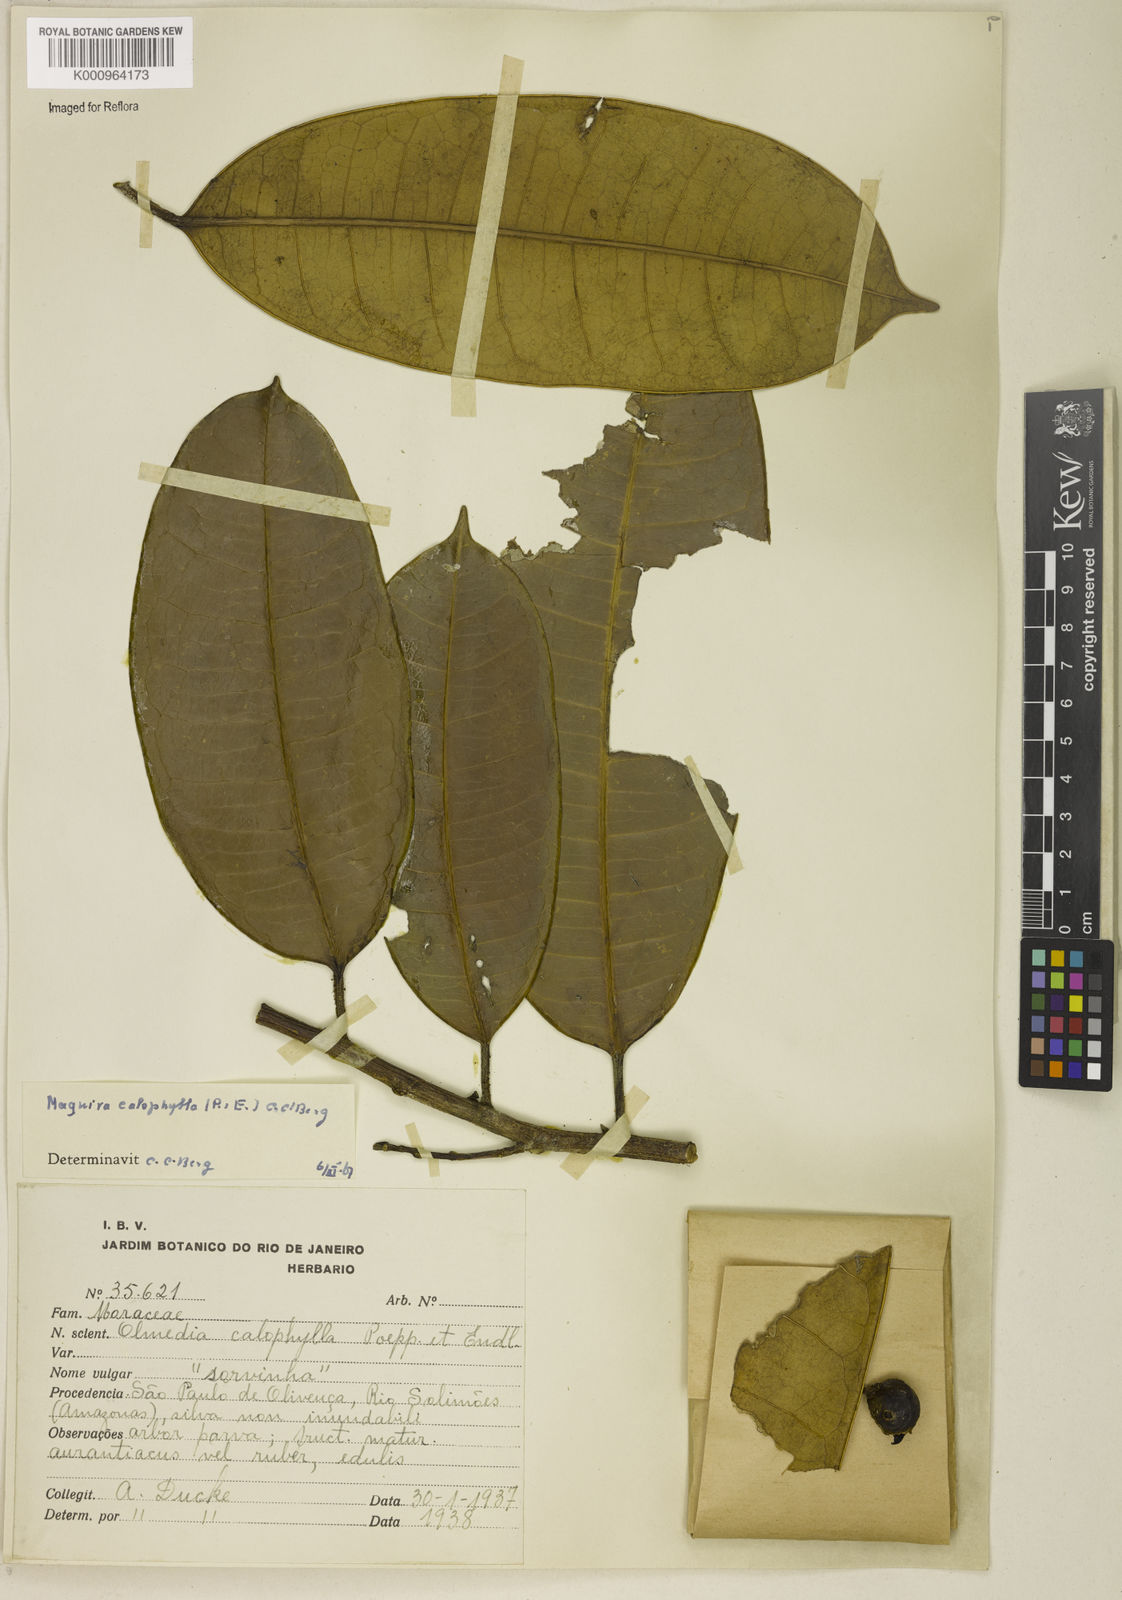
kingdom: Plantae
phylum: Tracheophyta
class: Magnoliopsida
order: Rosales
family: Moraceae
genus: Maquira
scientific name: Maquira calophylla
